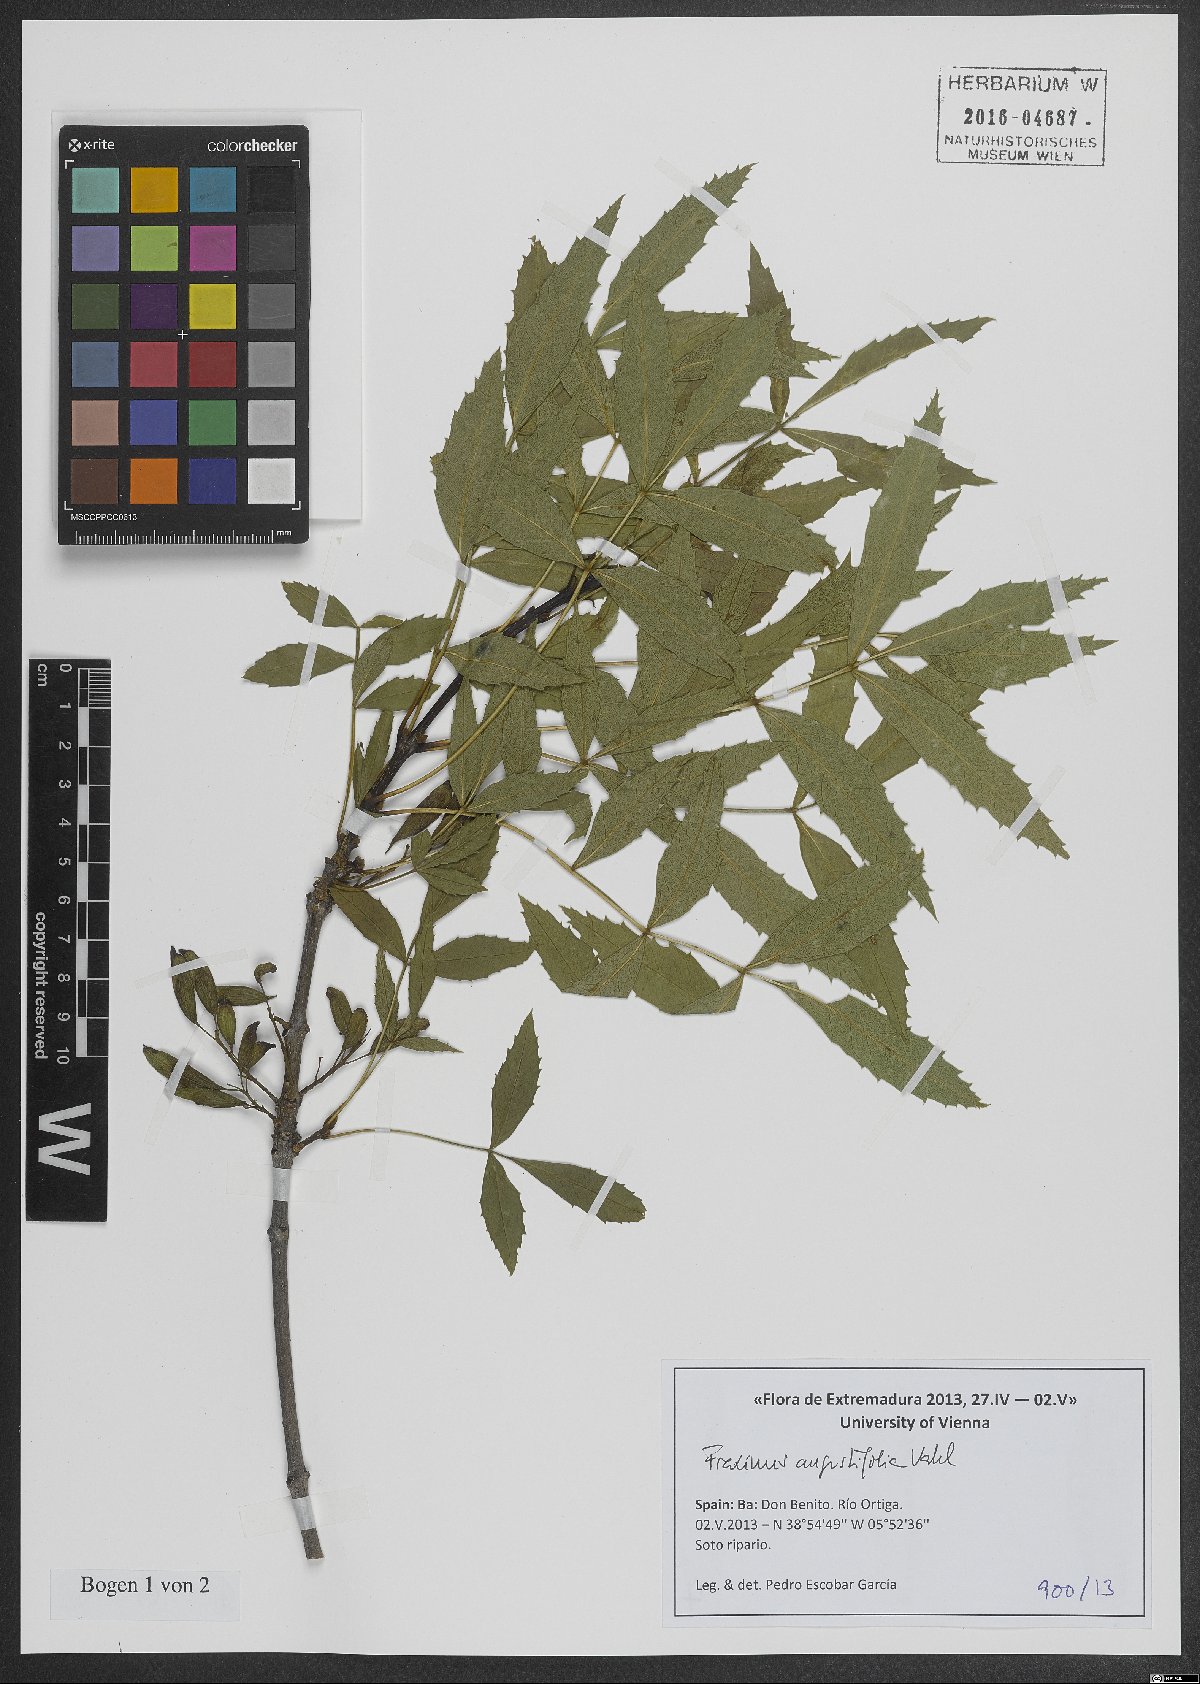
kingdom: Plantae
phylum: Tracheophyta
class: Magnoliopsida
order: Lamiales
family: Oleaceae
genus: Fraxinus
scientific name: Fraxinus angustifolia
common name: Narrow-leafed ash
